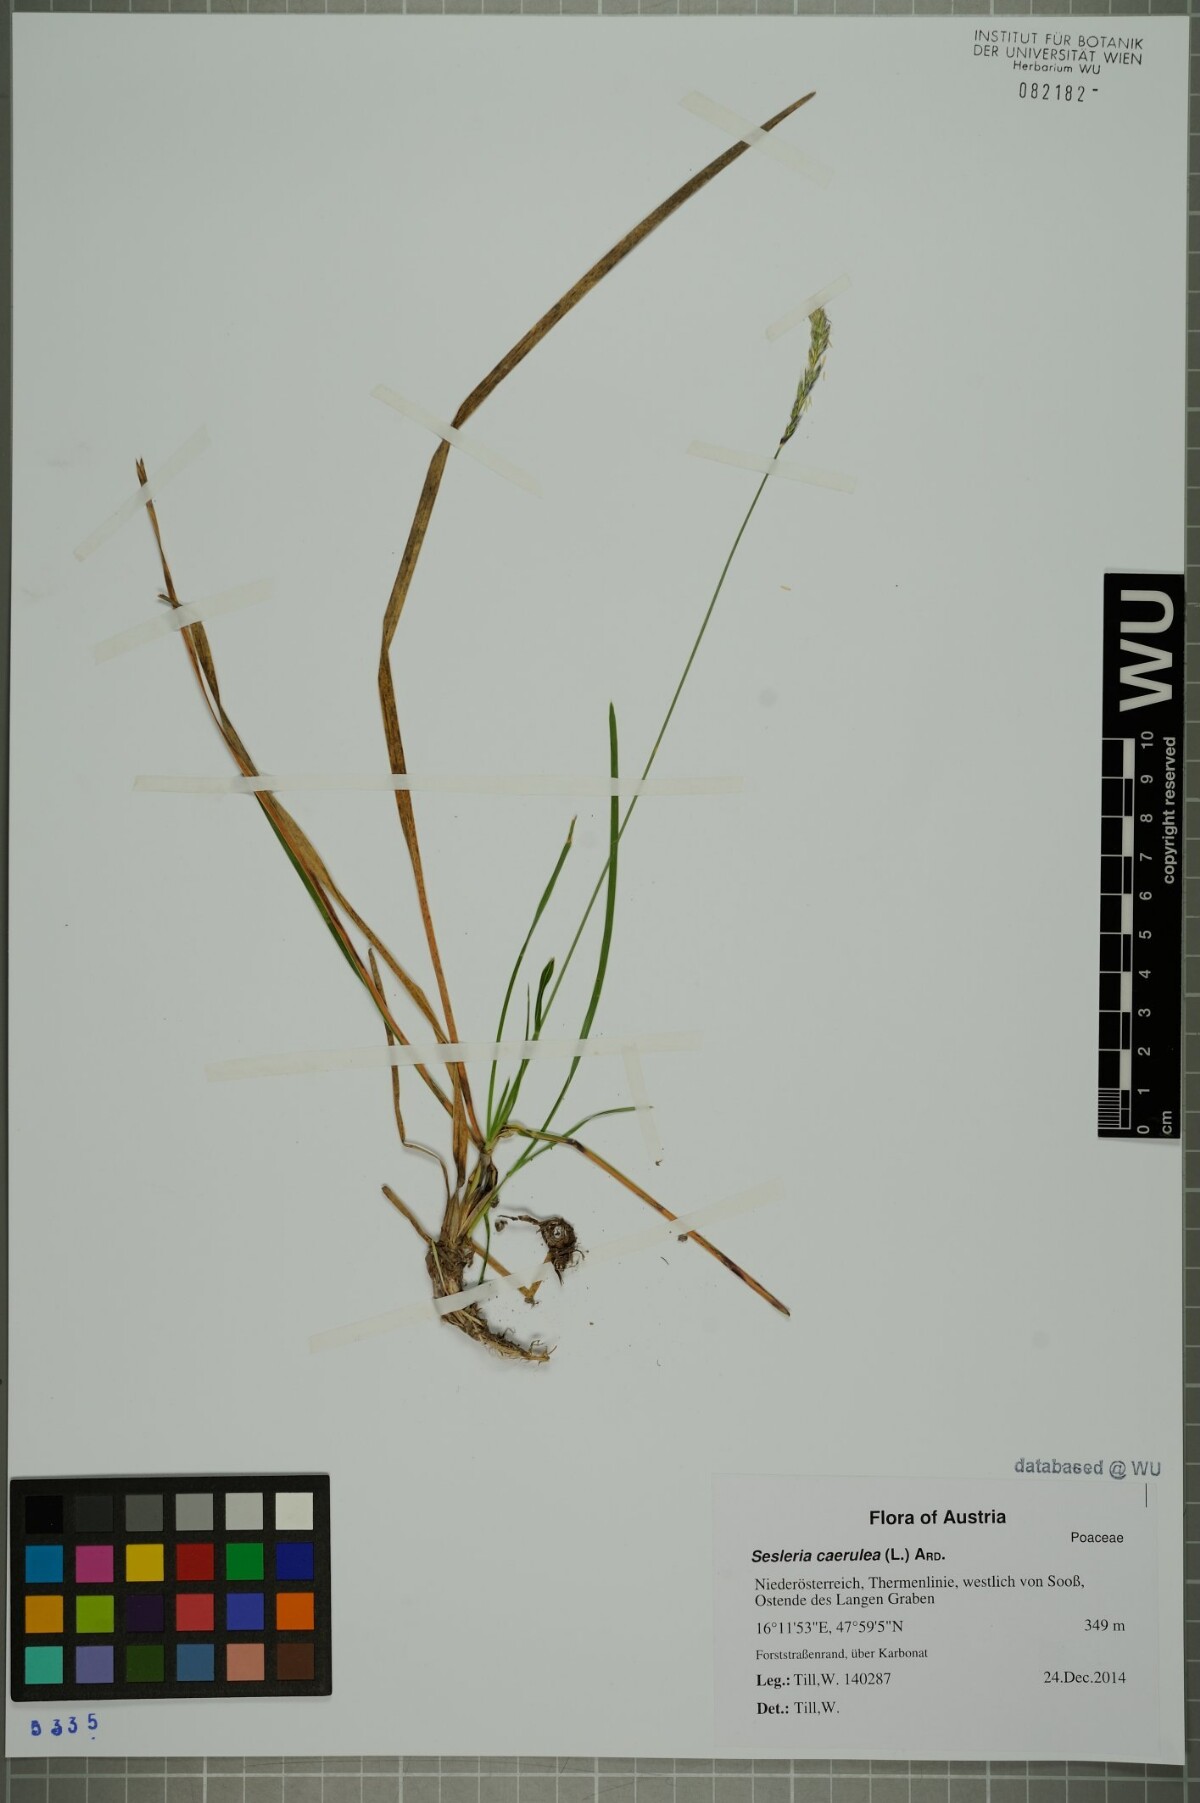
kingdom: Plantae
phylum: Tracheophyta
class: Liliopsida
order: Poales
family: Poaceae
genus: Sesleria
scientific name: Sesleria caerulea
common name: Blue moor-grass
